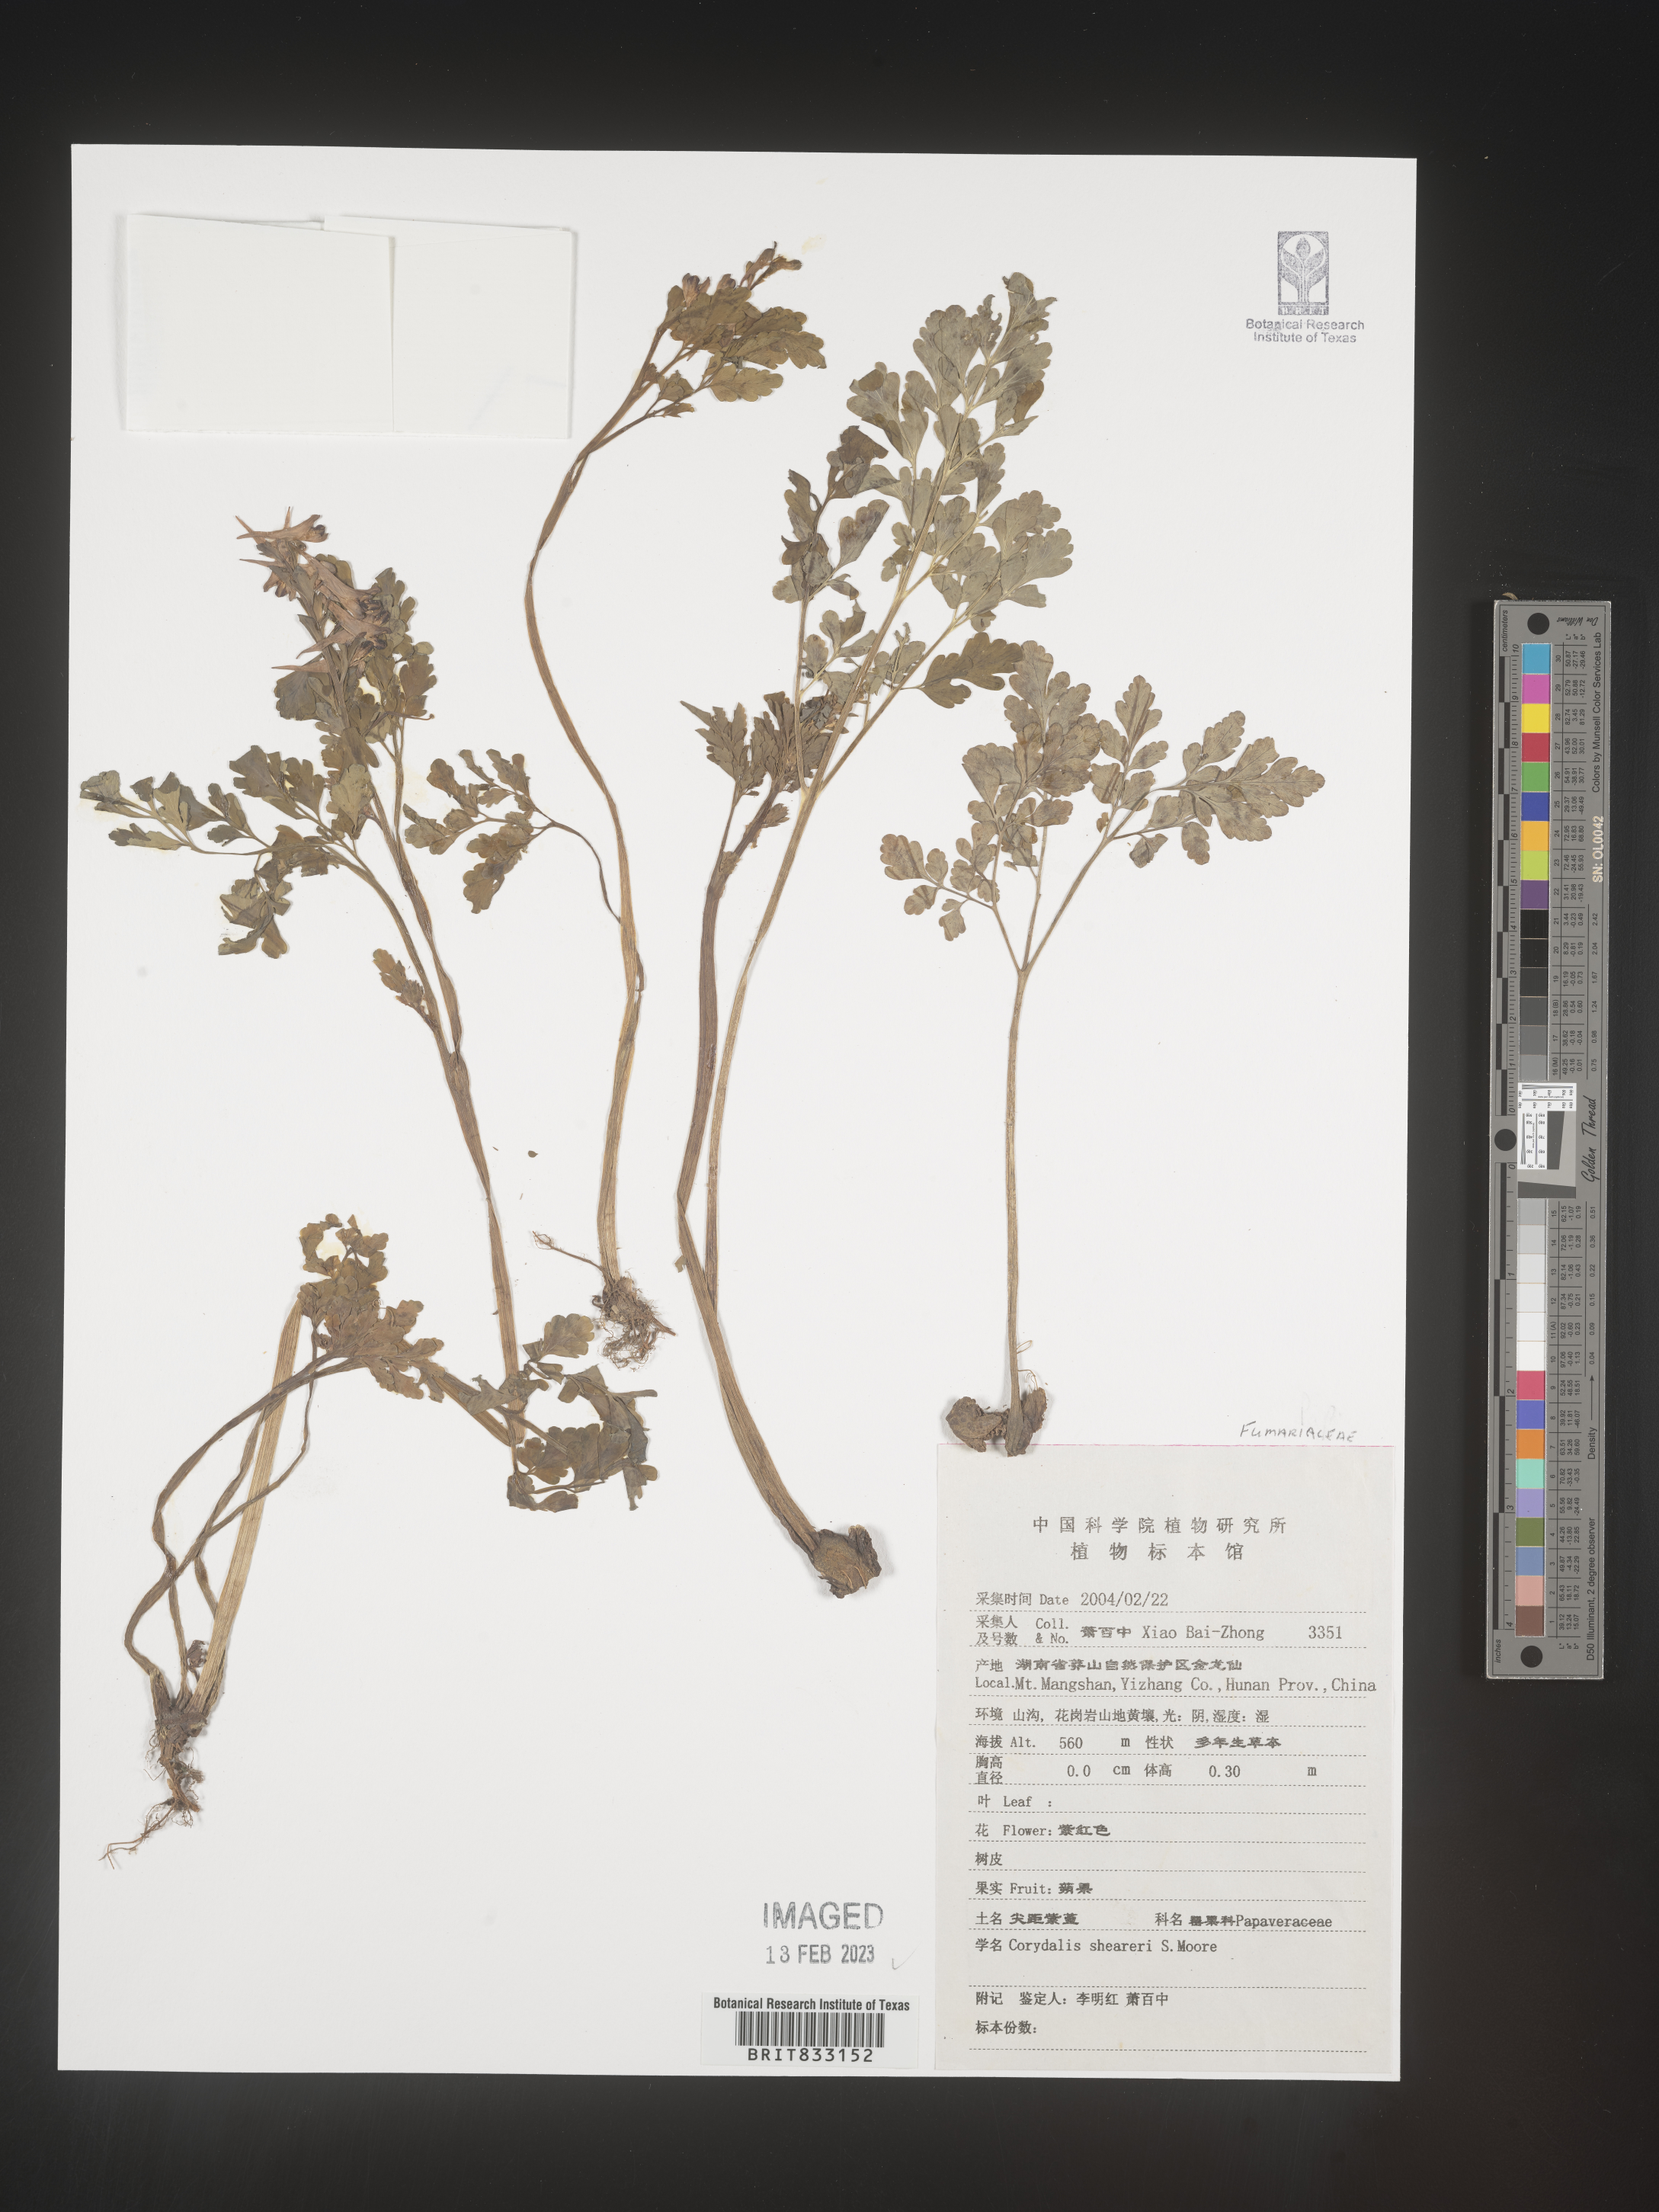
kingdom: Plantae
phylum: Tracheophyta
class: Magnoliopsida
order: Ranunculales
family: Papaveraceae
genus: Corydalis
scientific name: Corydalis sheareri
